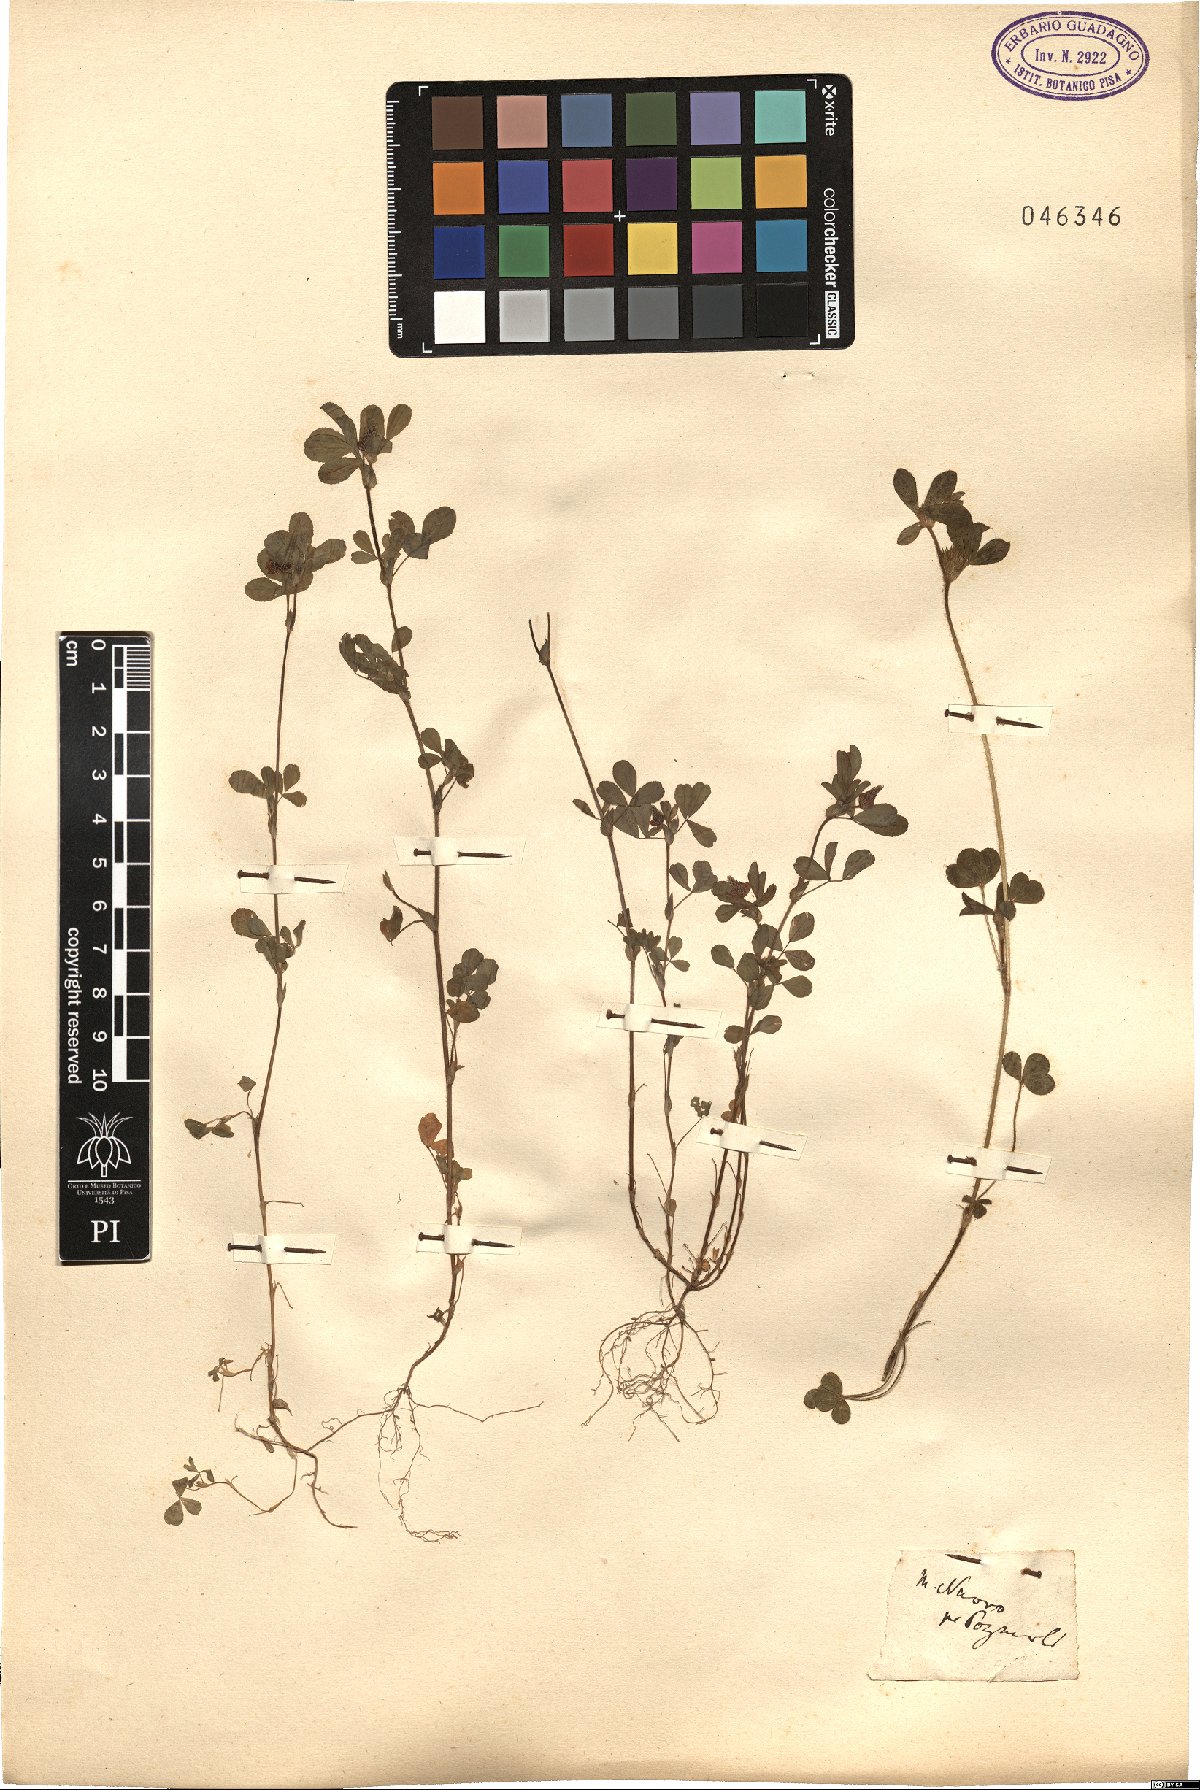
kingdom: Plantae
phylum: Tracheophyta
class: Magnoliopsida
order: Fabales
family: Fabaceae
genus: Trifolium
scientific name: Trifolium
